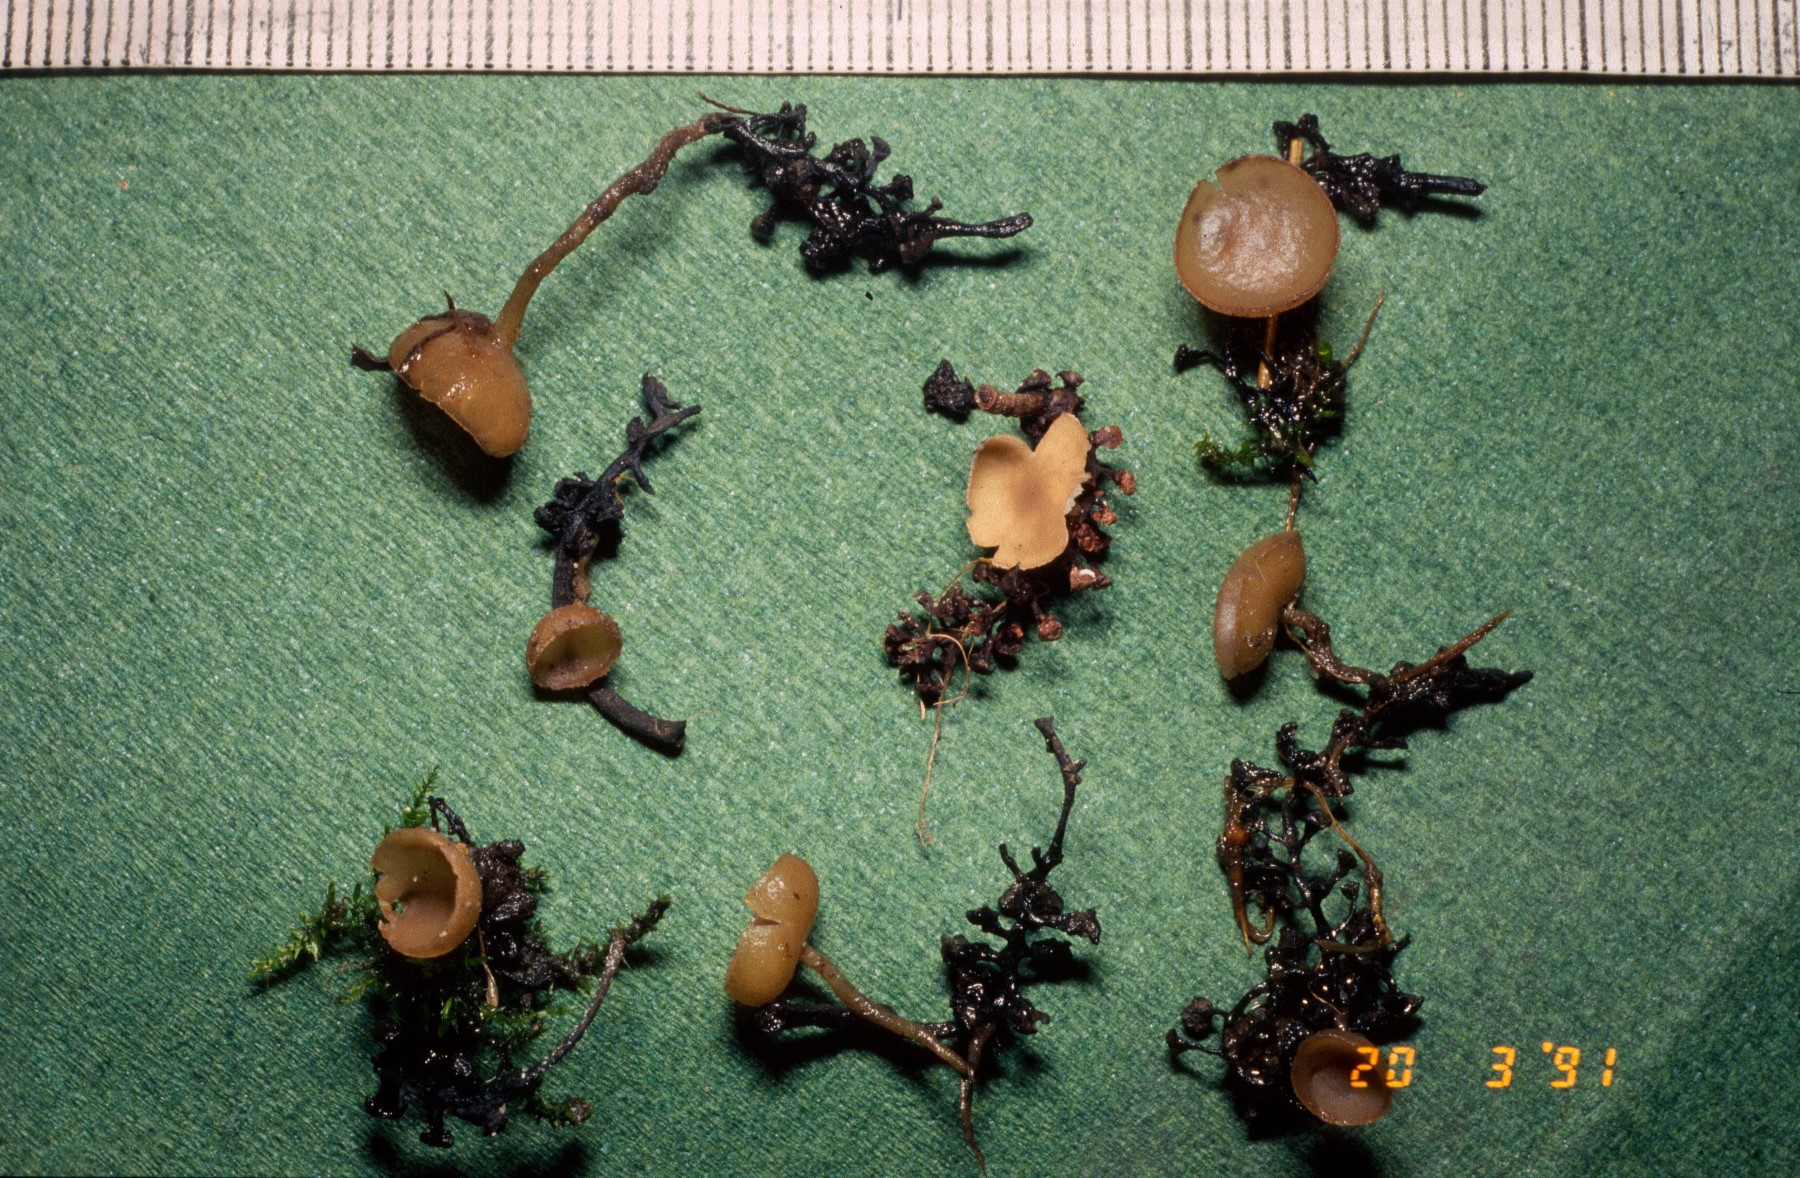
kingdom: Fungi
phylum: Ascomycota
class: Leotiomycetes
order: Helotiales
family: Sclerotiniaceae
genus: Ciboria
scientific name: Ciboria amentacea
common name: ellerakle-knoldskive
